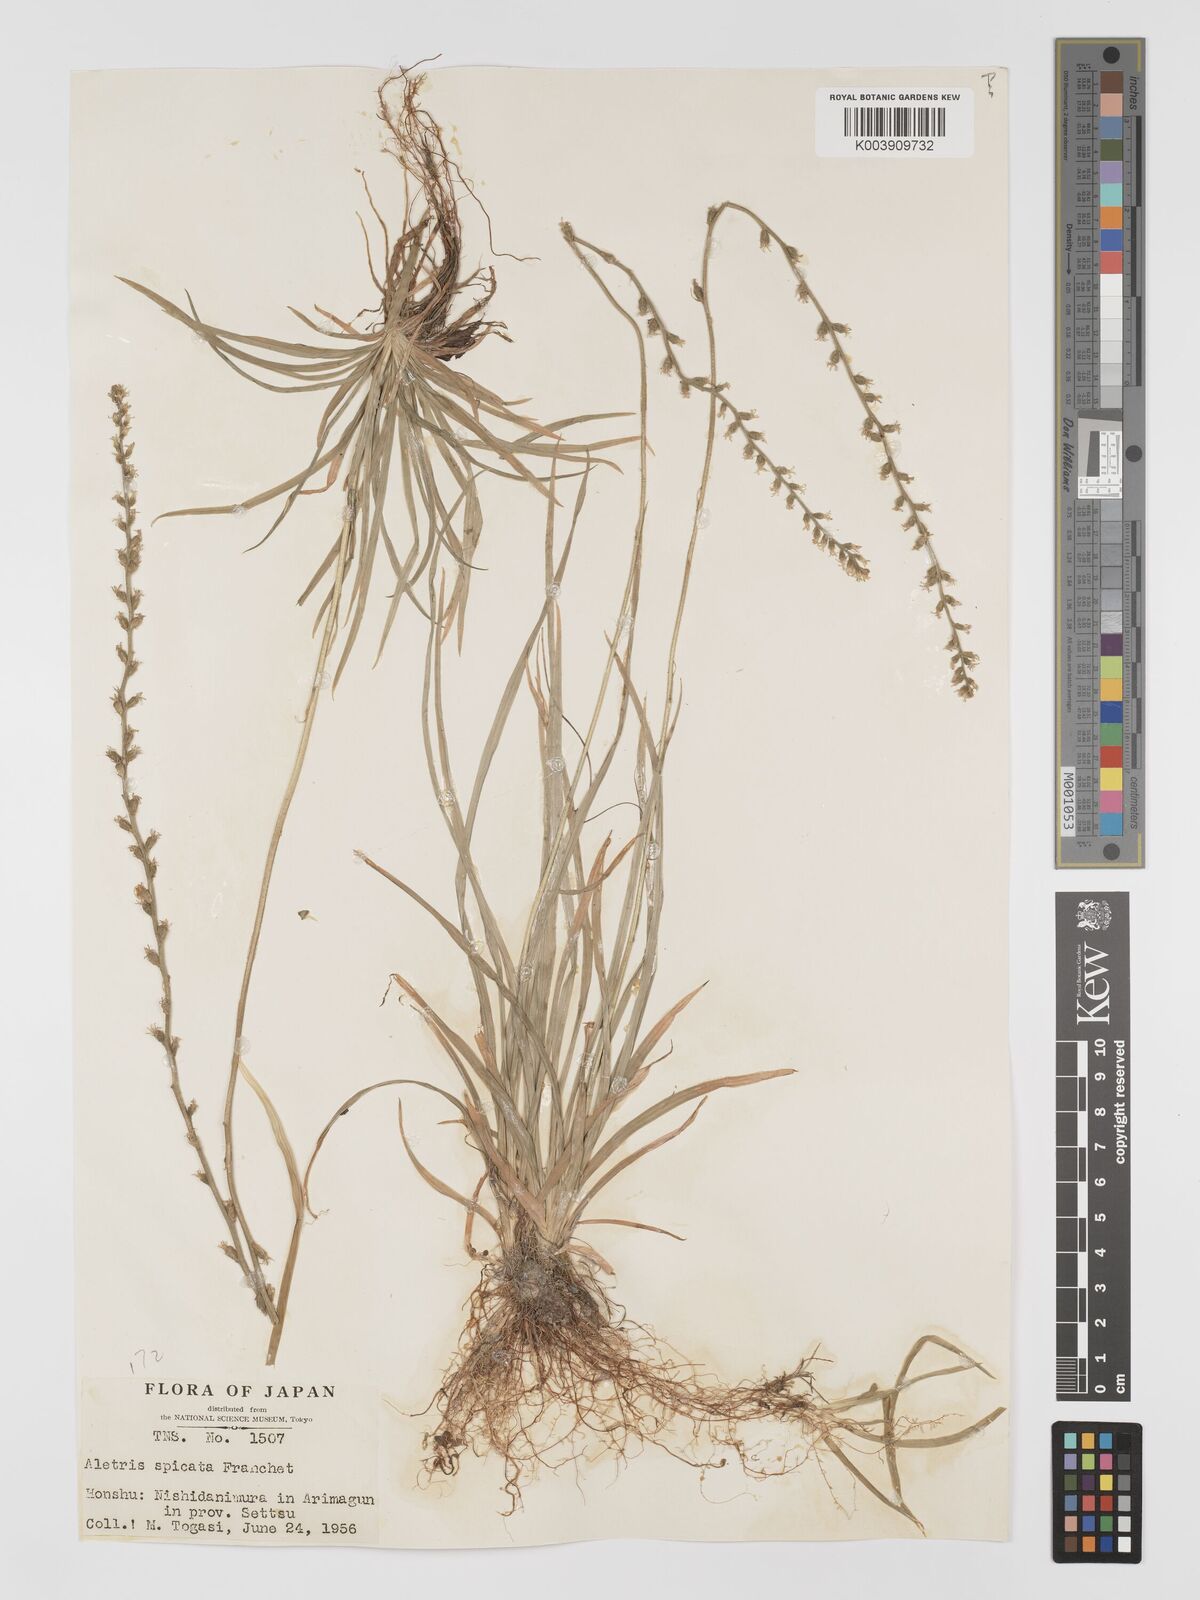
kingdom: Plantae
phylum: Tracheophyta
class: Liliopsida
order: Dioscoreales
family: Nartheciaceae
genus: Aletris
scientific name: Aletris spicata
